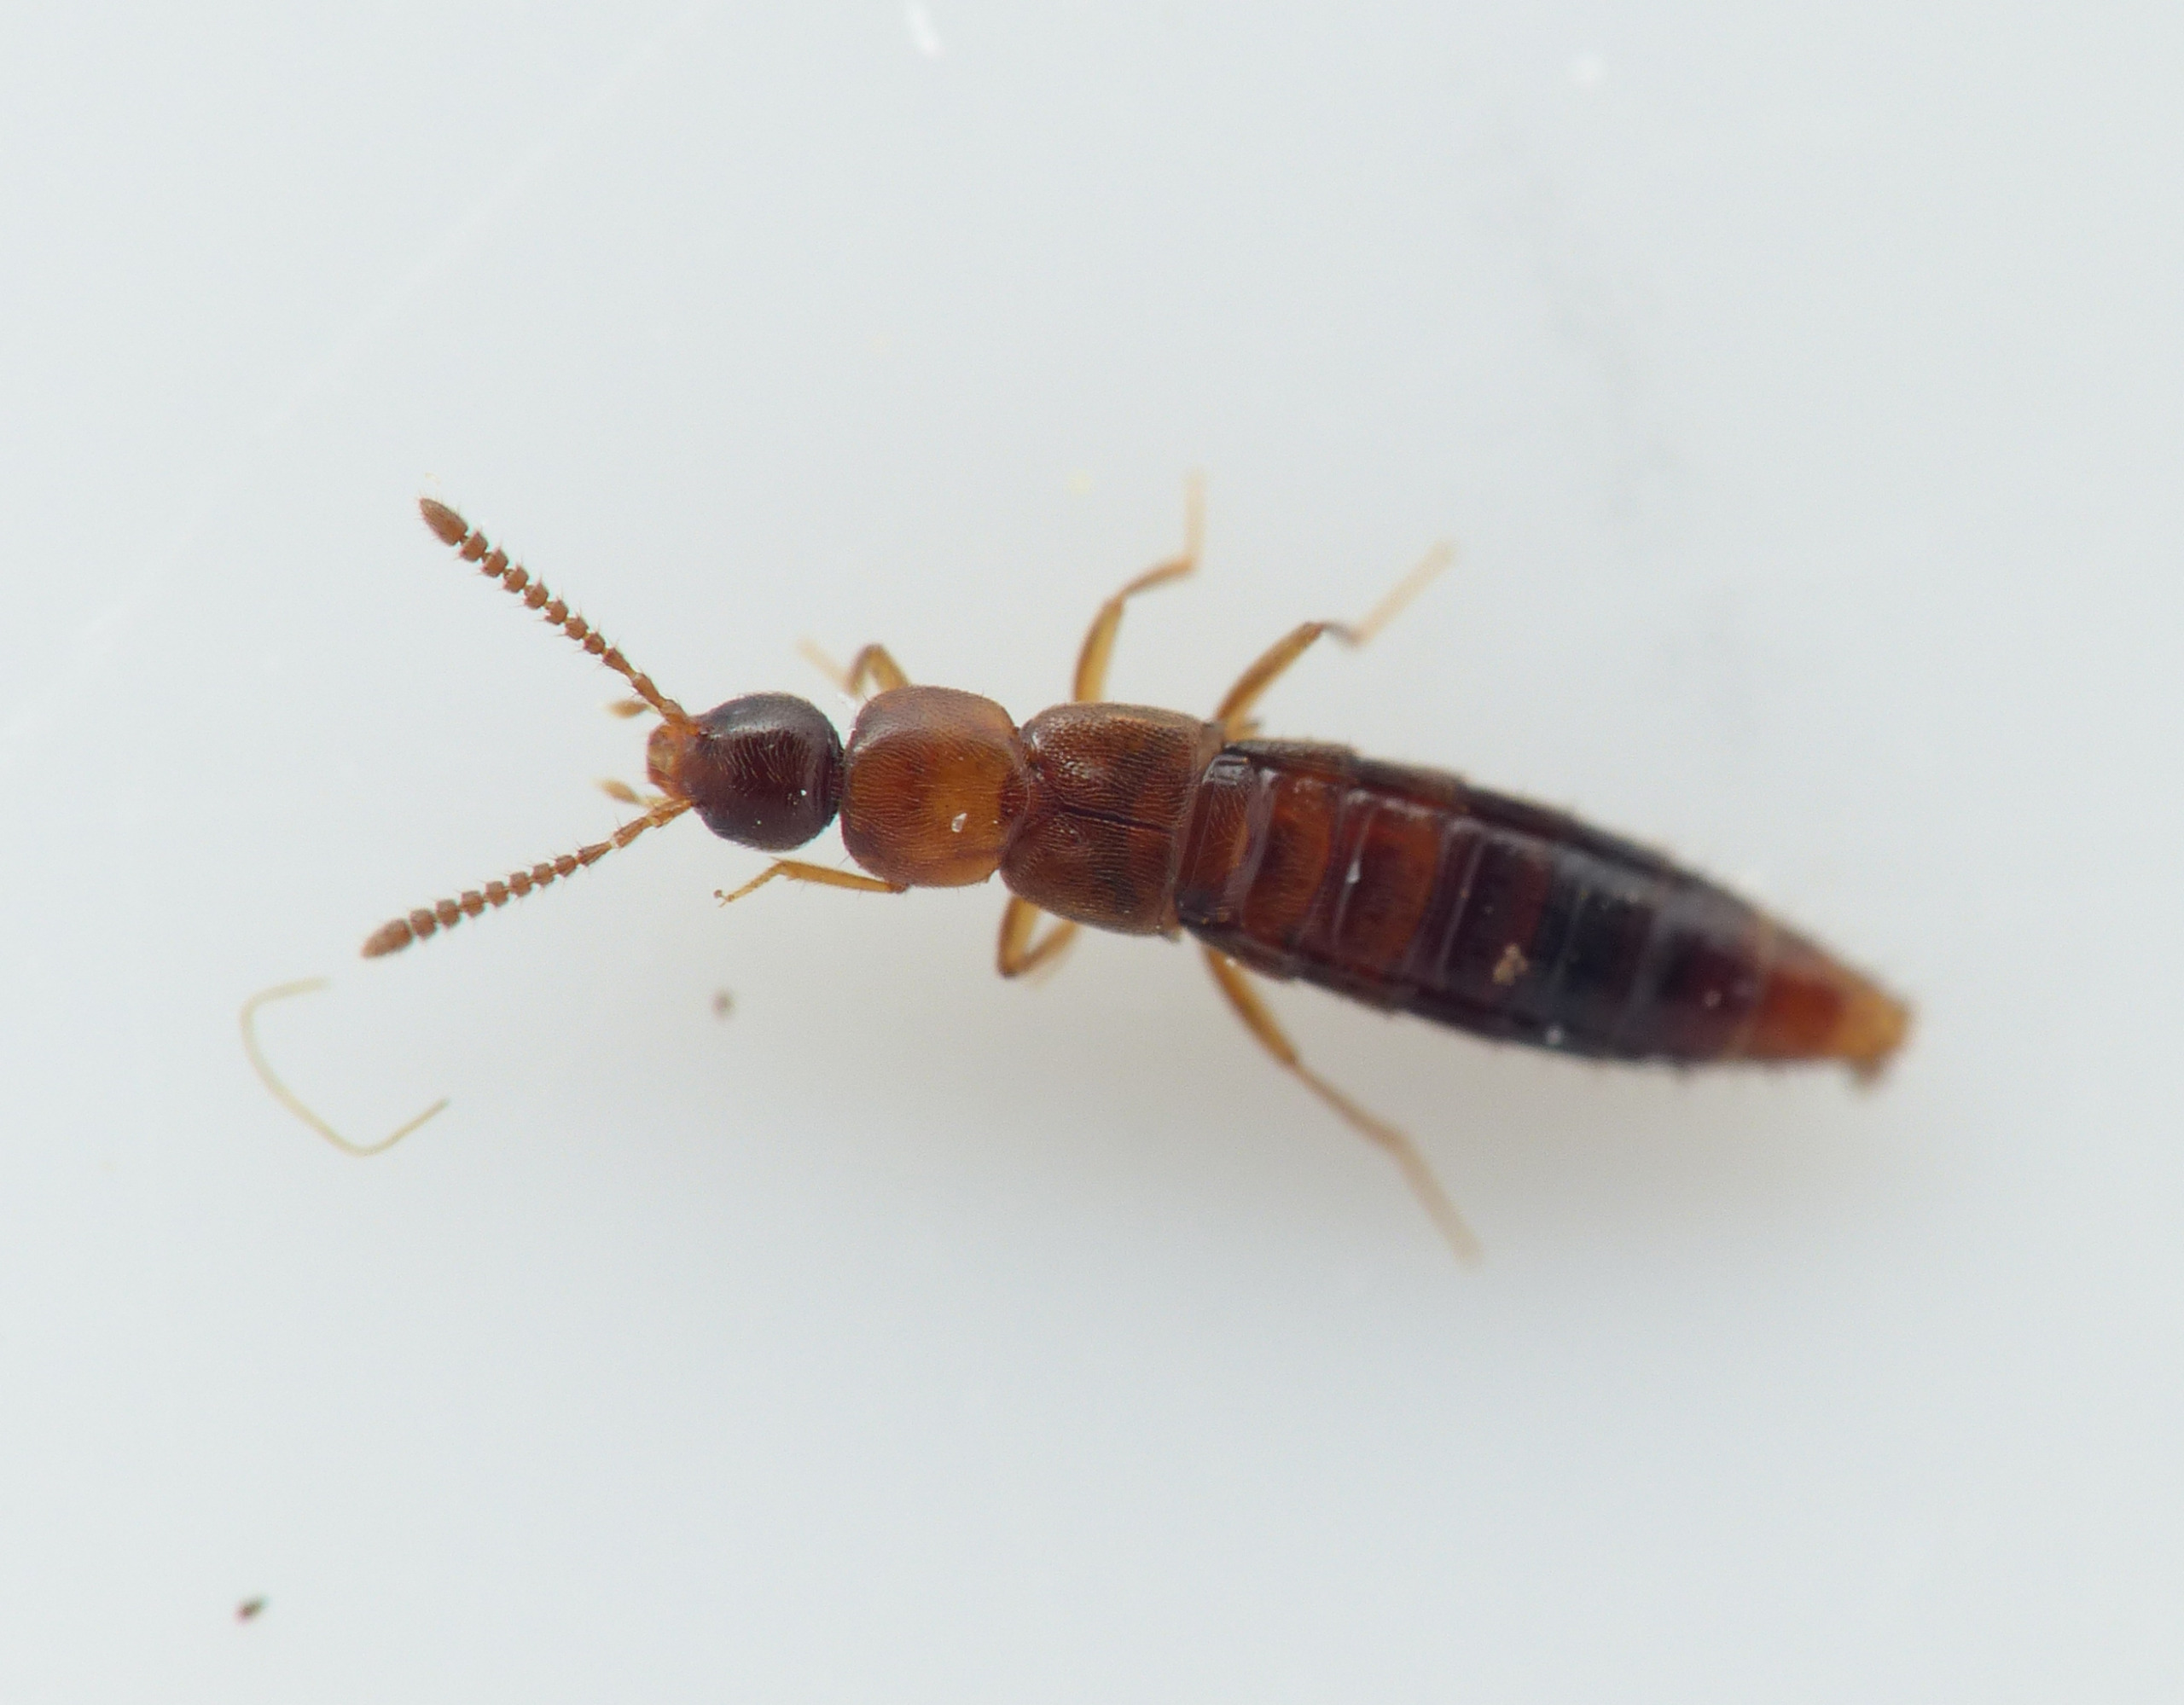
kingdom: Animalia
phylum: Arthropoda
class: Insecta
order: Coleoptera
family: Staphylinidae
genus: Geostiba
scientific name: Geostiba circellaris
